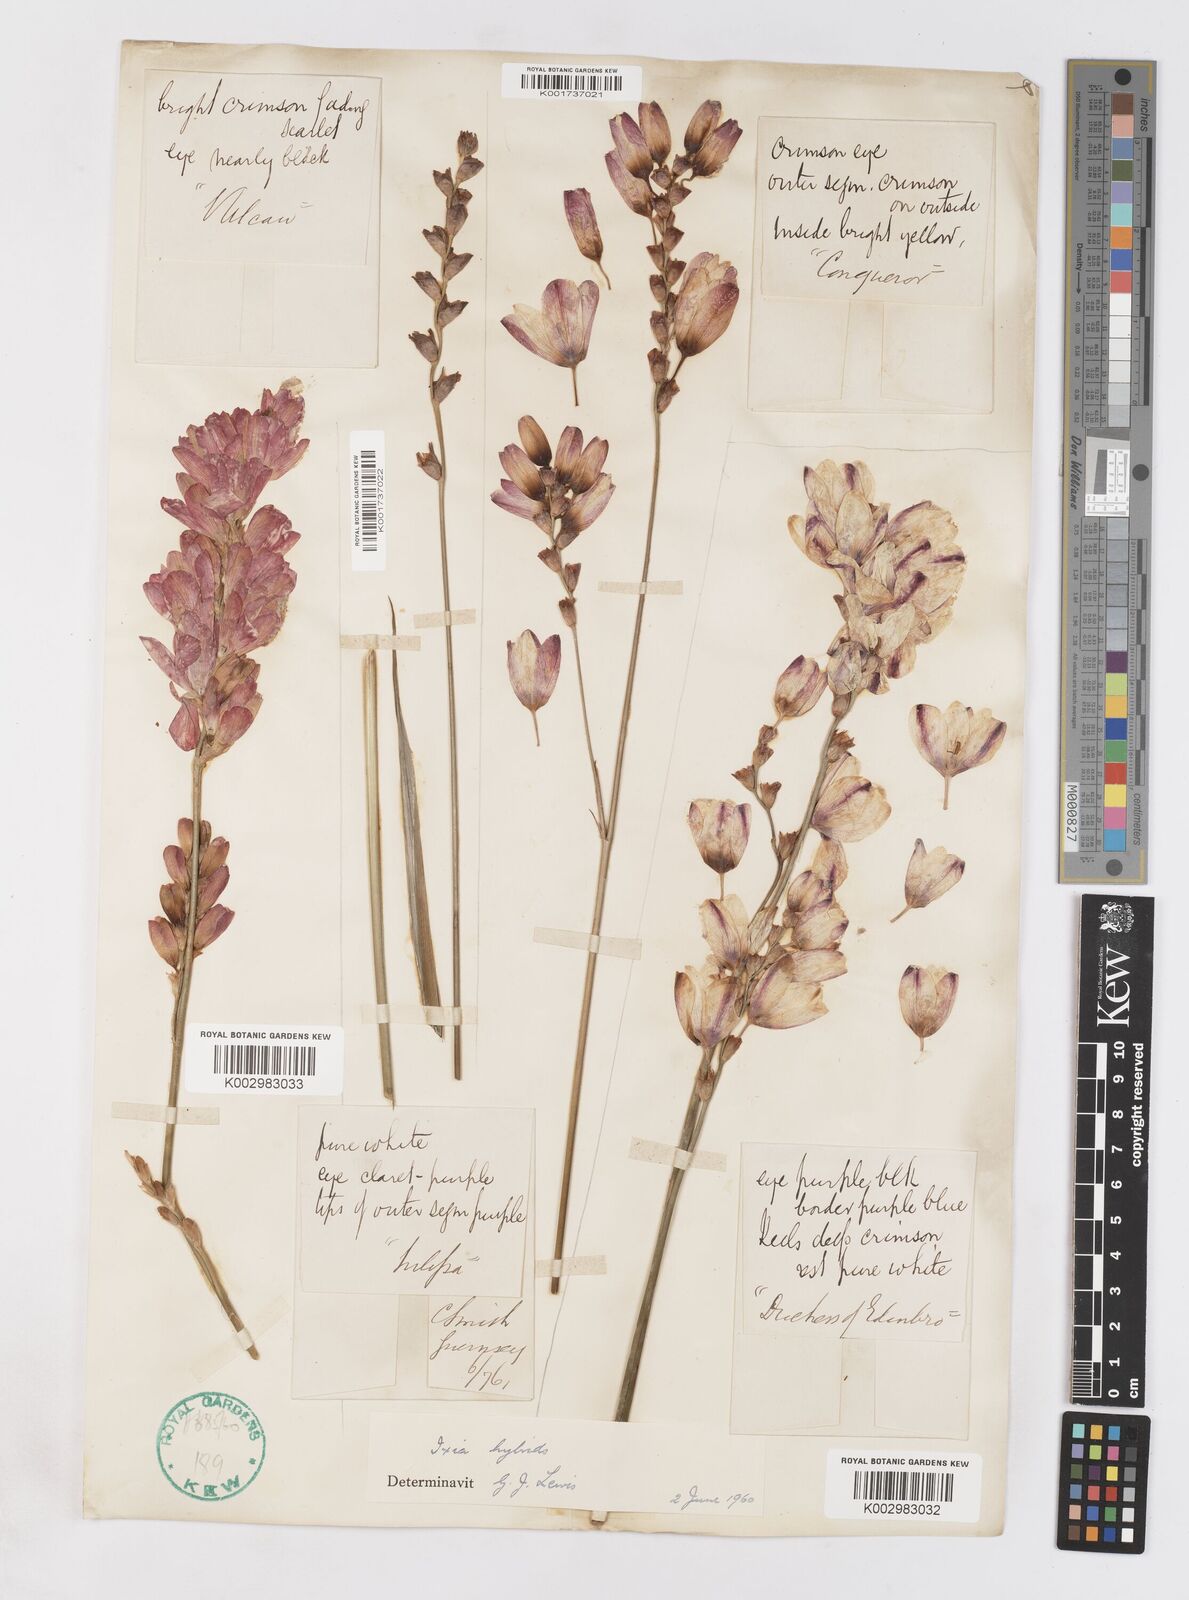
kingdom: Plantae
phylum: Tracheophyta
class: Liliopsida
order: Asparagales
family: Iridaceae
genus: Ixia
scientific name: Ixia polystachya
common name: White-and-yellow-flower cornlily
